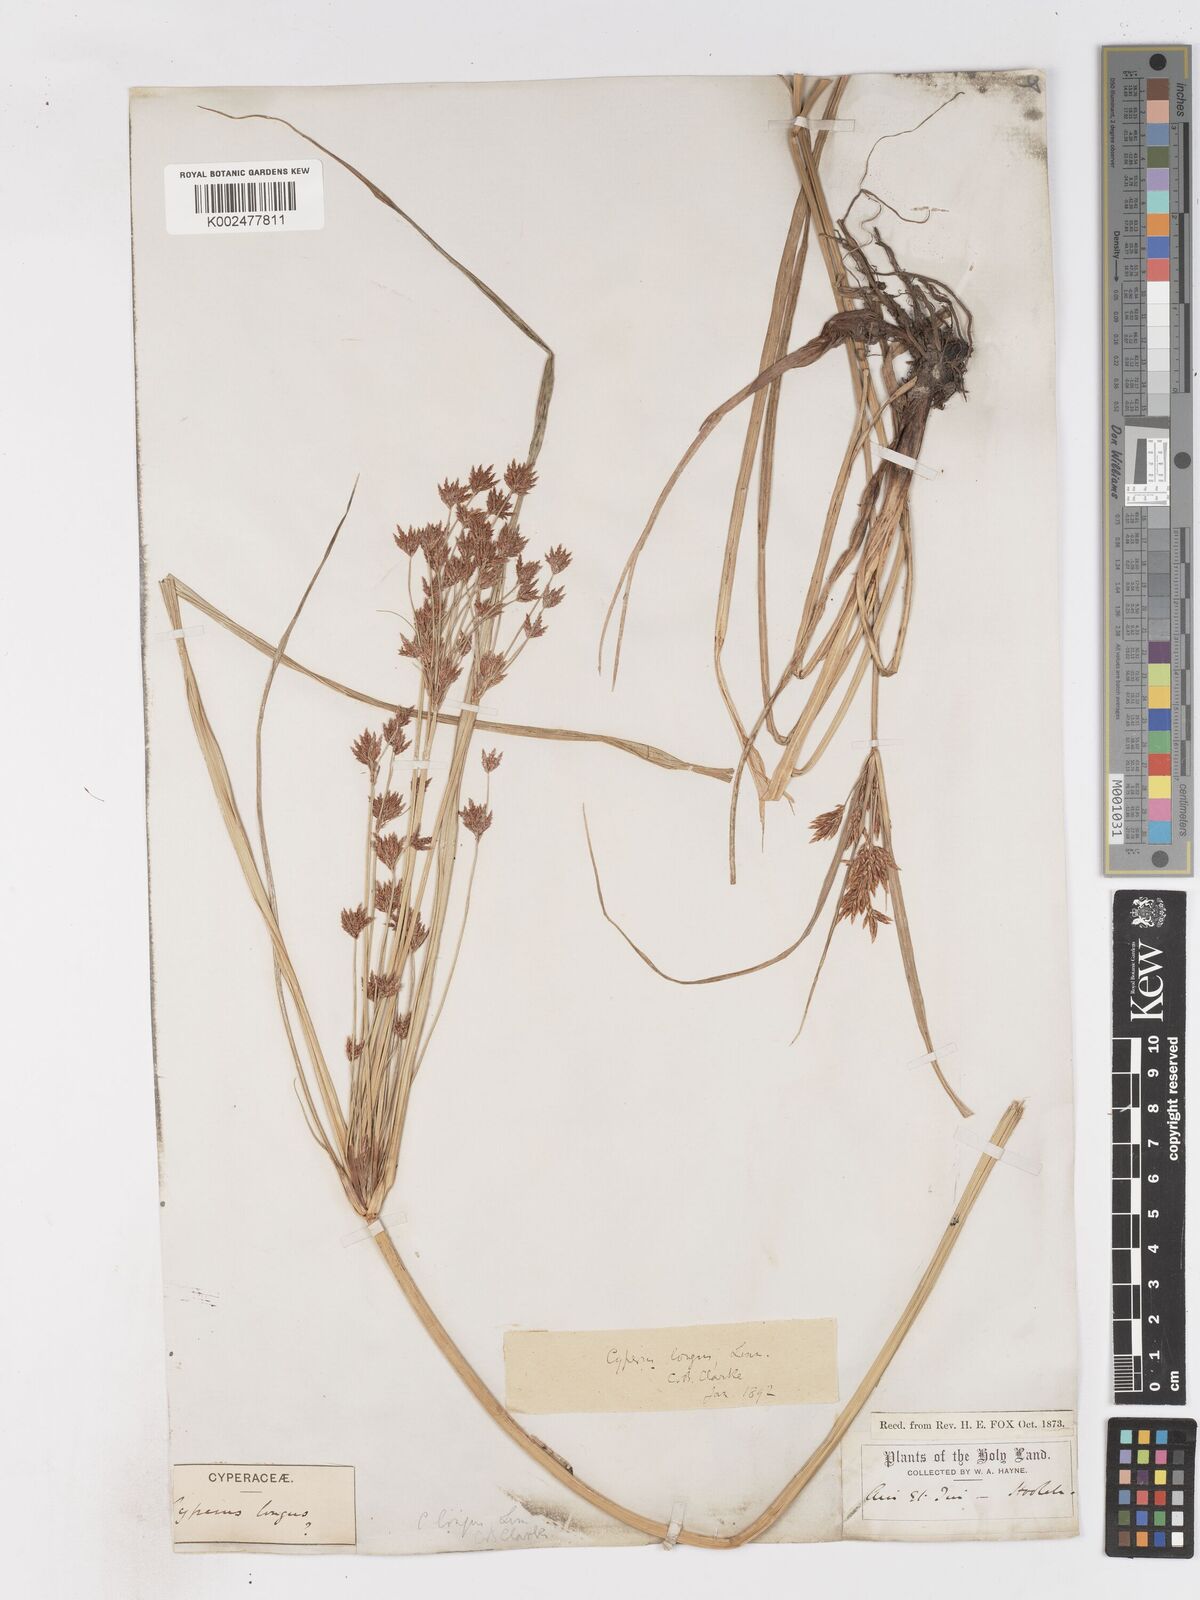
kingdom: Plantae
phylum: Tracheophyta
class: Liliopsida
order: Poales
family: Cyperaceae
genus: Cyperus
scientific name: Cyperus longus
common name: Galingale
